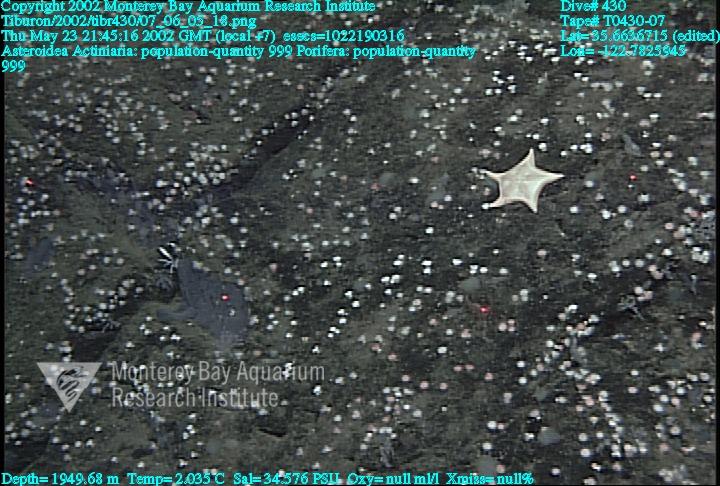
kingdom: Animalia
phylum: Porifera
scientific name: Porifera
